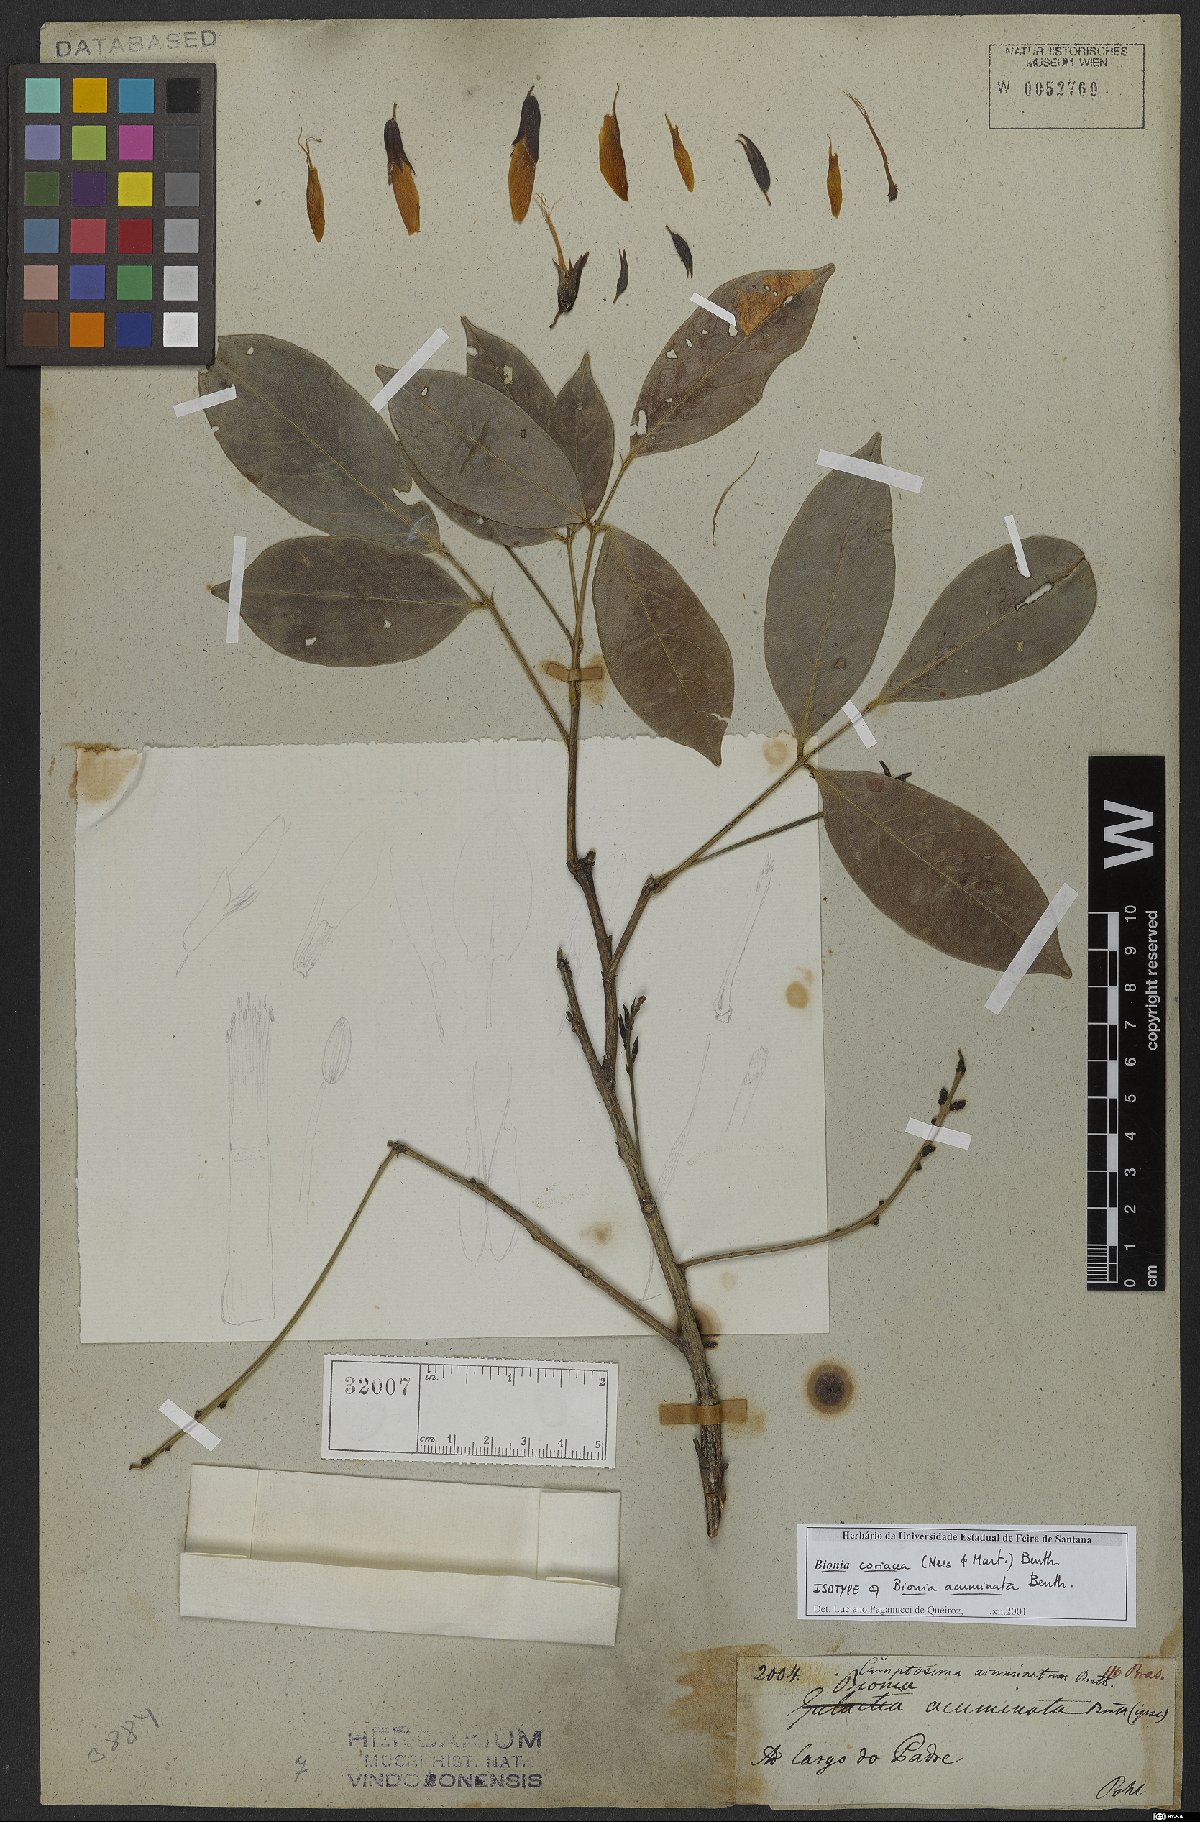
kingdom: Plantae
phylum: Tracheophyta
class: Magnoliopsida
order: Fabales
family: Fabaceae
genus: Camptosema
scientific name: Camptosema coriaceum
